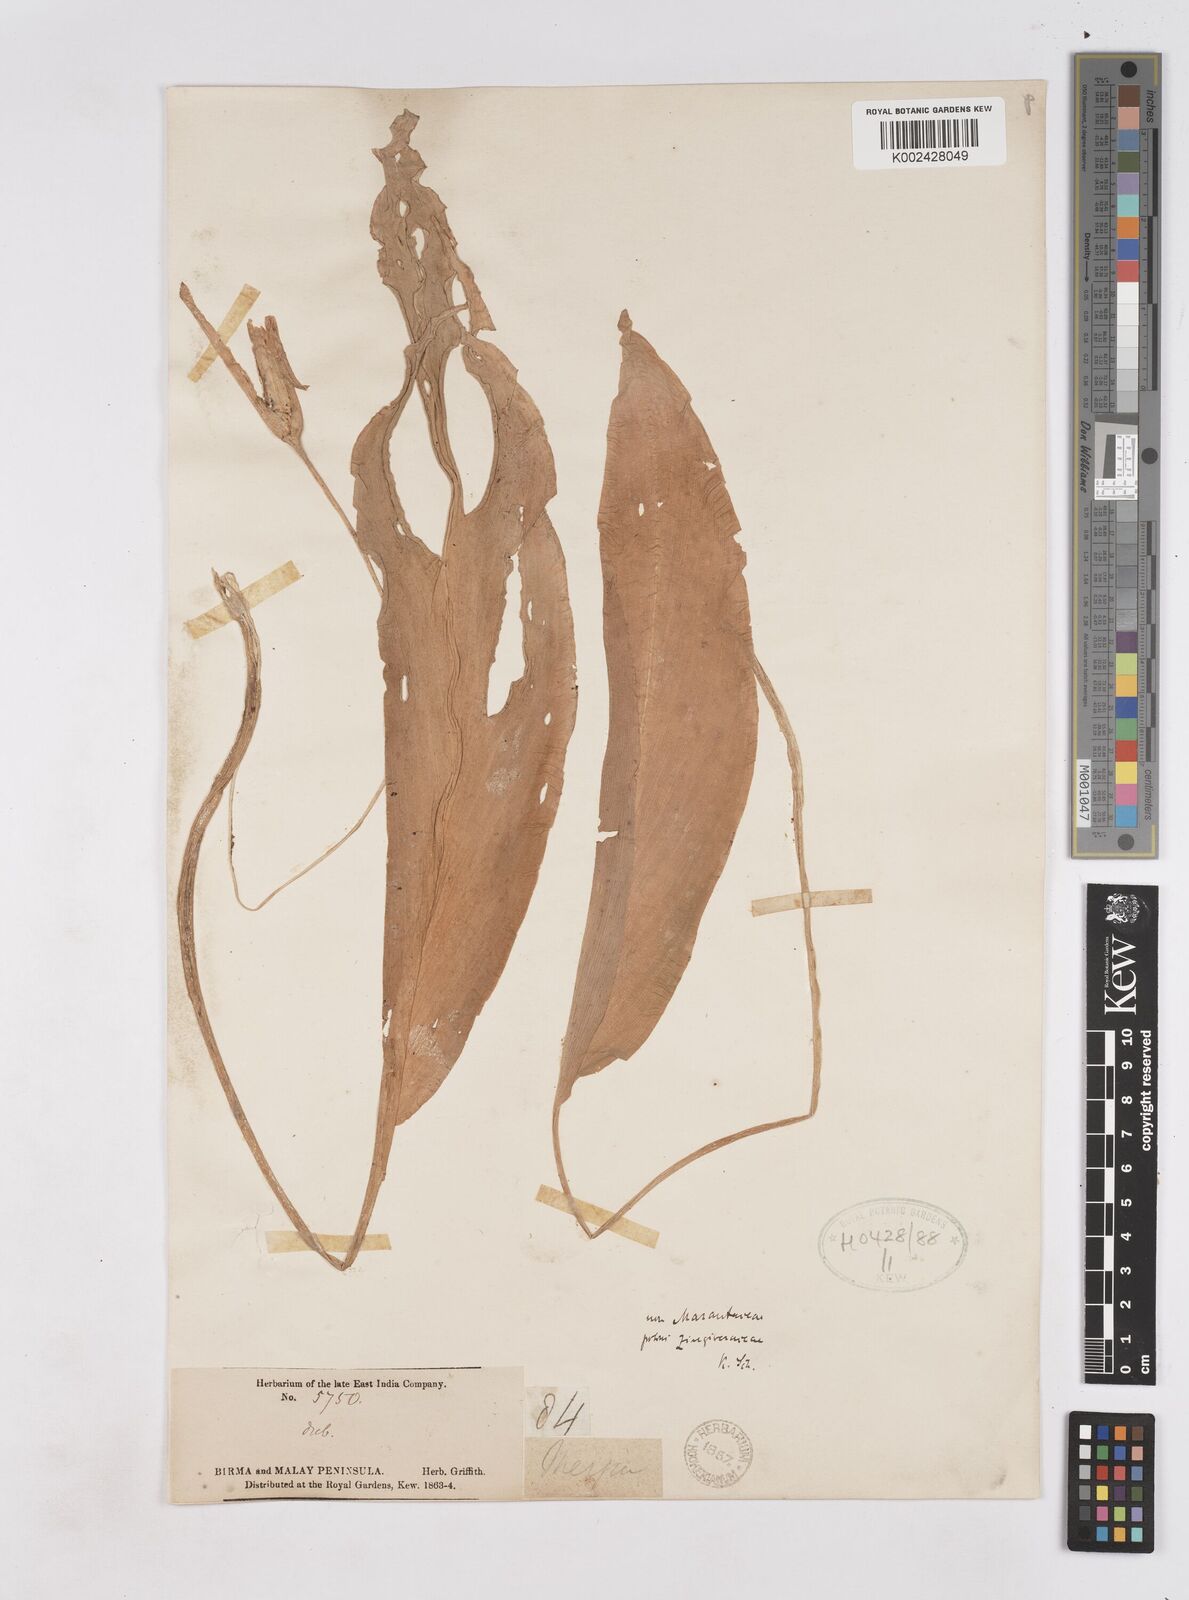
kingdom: Plantae
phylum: Tracheophyta
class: Liliopsida
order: Zingiberales
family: Zingiberaceae
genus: Kaempferia
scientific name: Kaempferia
